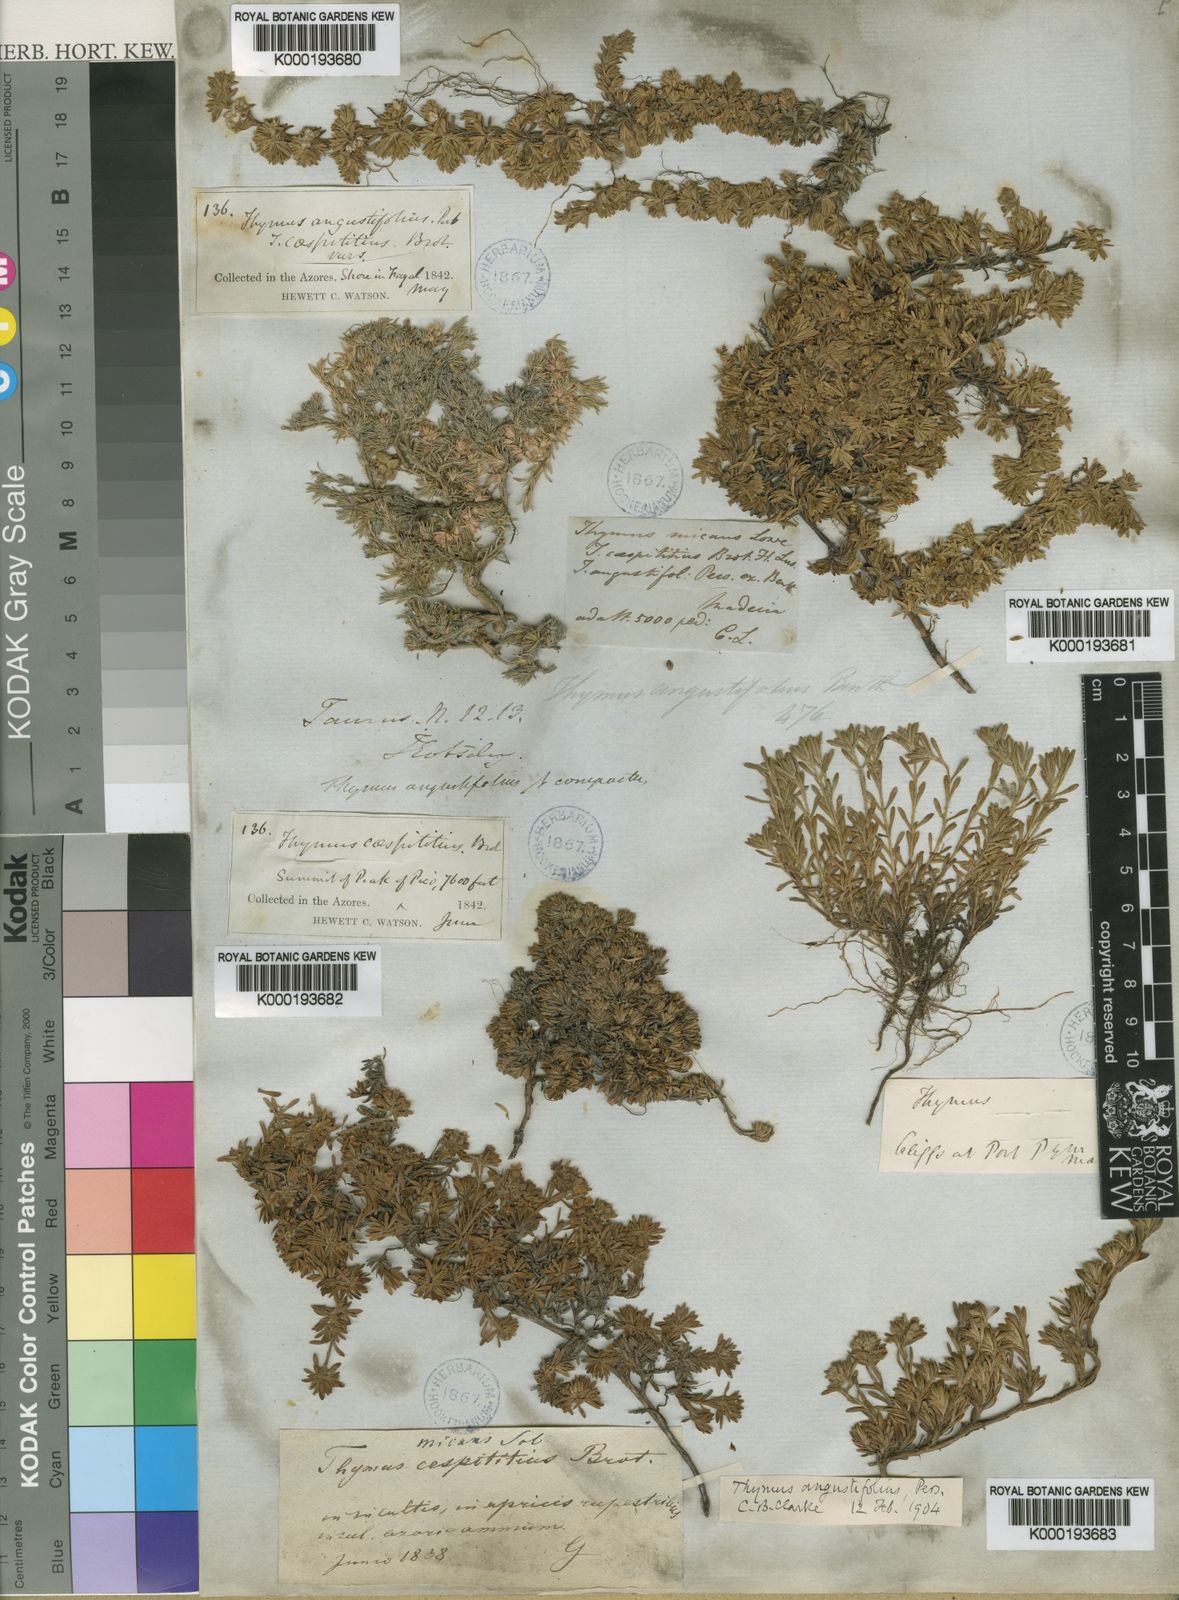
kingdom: Plantae
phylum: Tracheophyta
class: Magnoliopsida
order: Lamiales
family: Lamiaceae
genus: Thymus
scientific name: Thymus serpyllum
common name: Breckland thyme
